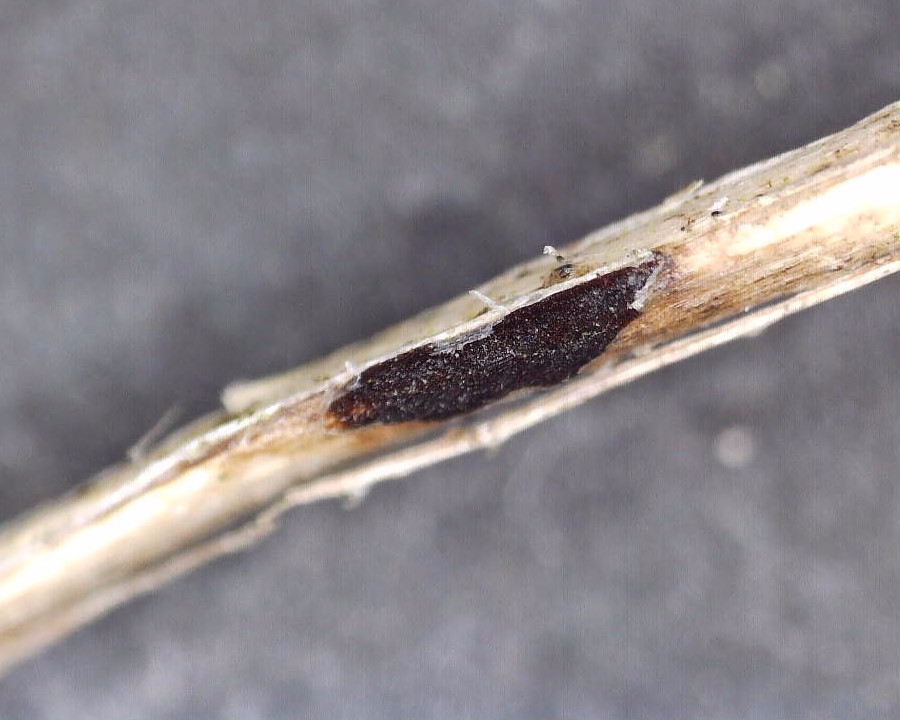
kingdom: Fungi
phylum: Basidiomycota
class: Pucciniomycetes
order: Pucciniales
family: Pucciniaceae
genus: Puccinia
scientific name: Puccinia difformis
